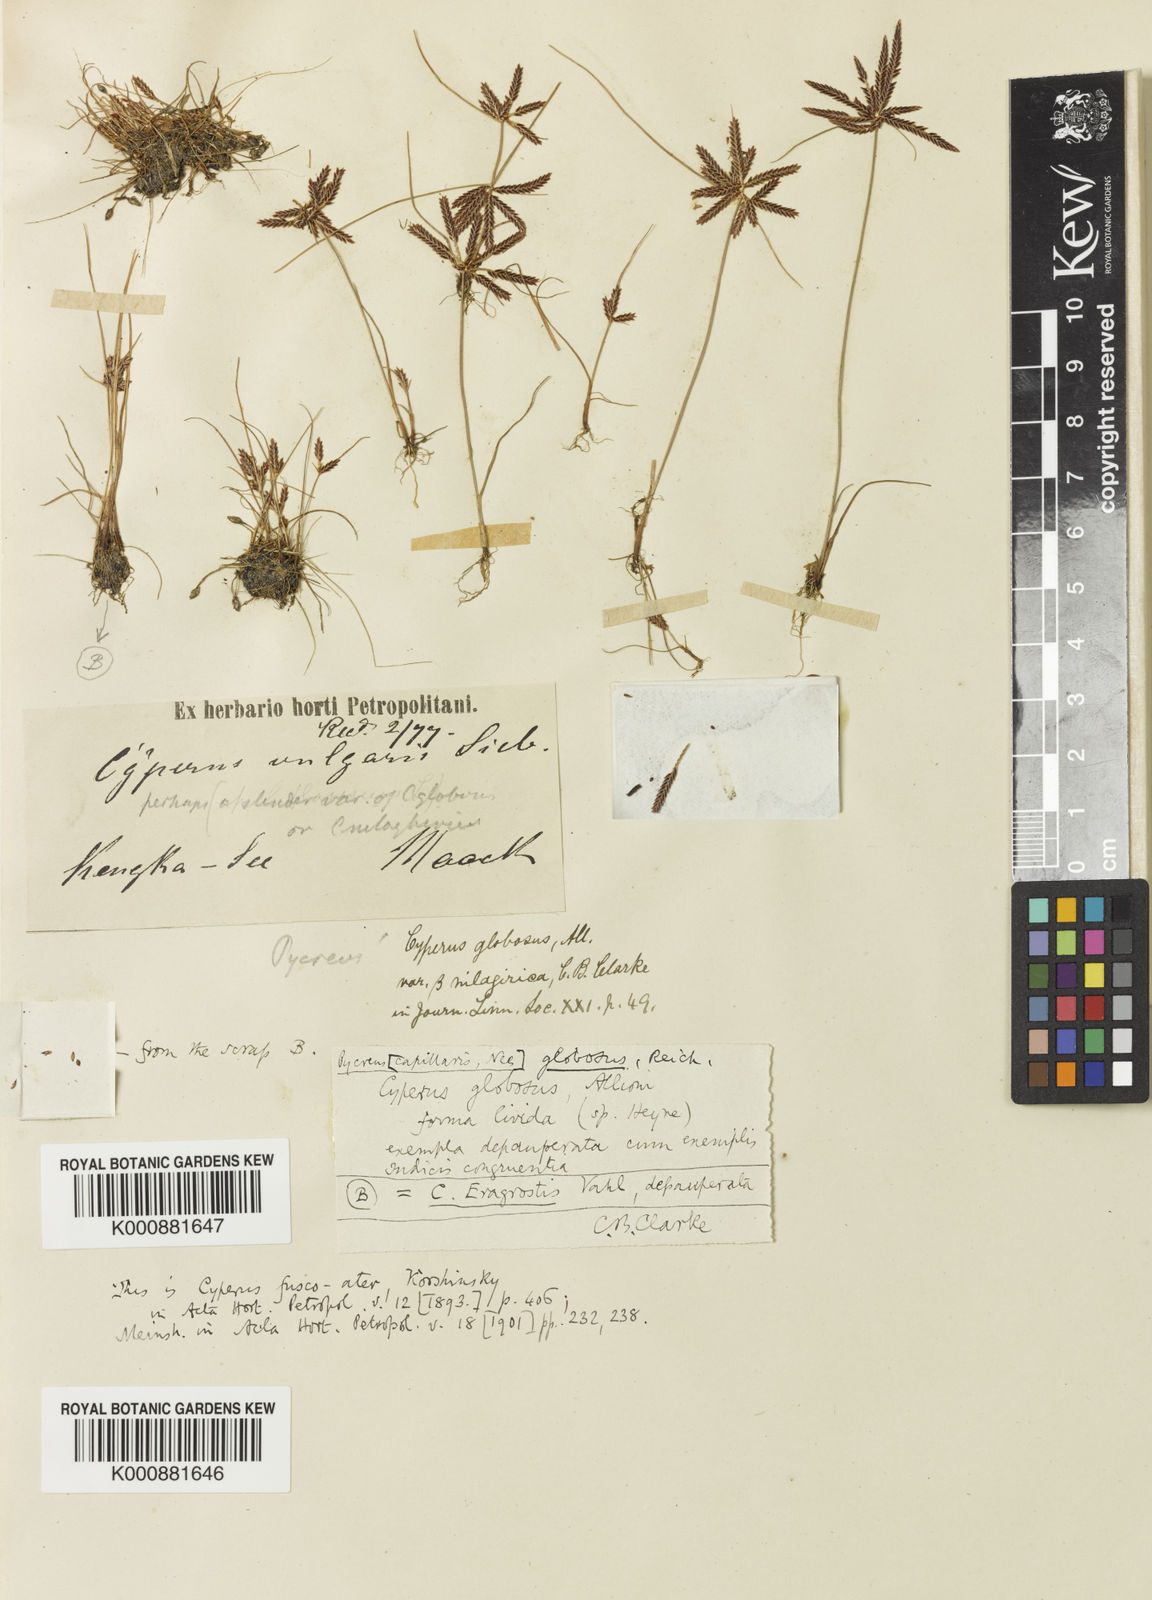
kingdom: Plantae
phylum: Tracheophyta
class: Liliopsida
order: Poales
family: Cyperaceae
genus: Cyperus
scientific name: Cyperus flavidus
